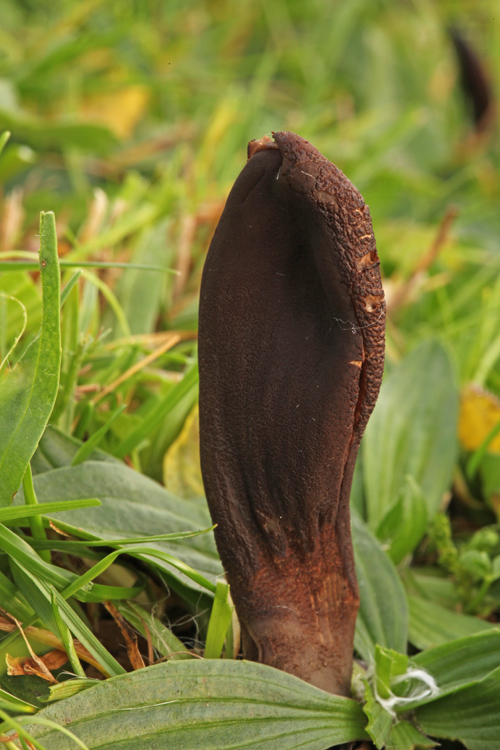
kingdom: Fungi
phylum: Ascomycota
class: Geoglossomycetes
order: Geoglossales
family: Geoglossaceae
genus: Geoglossum
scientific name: Geoglossum atropurpureum
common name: purpursort farvetunge
